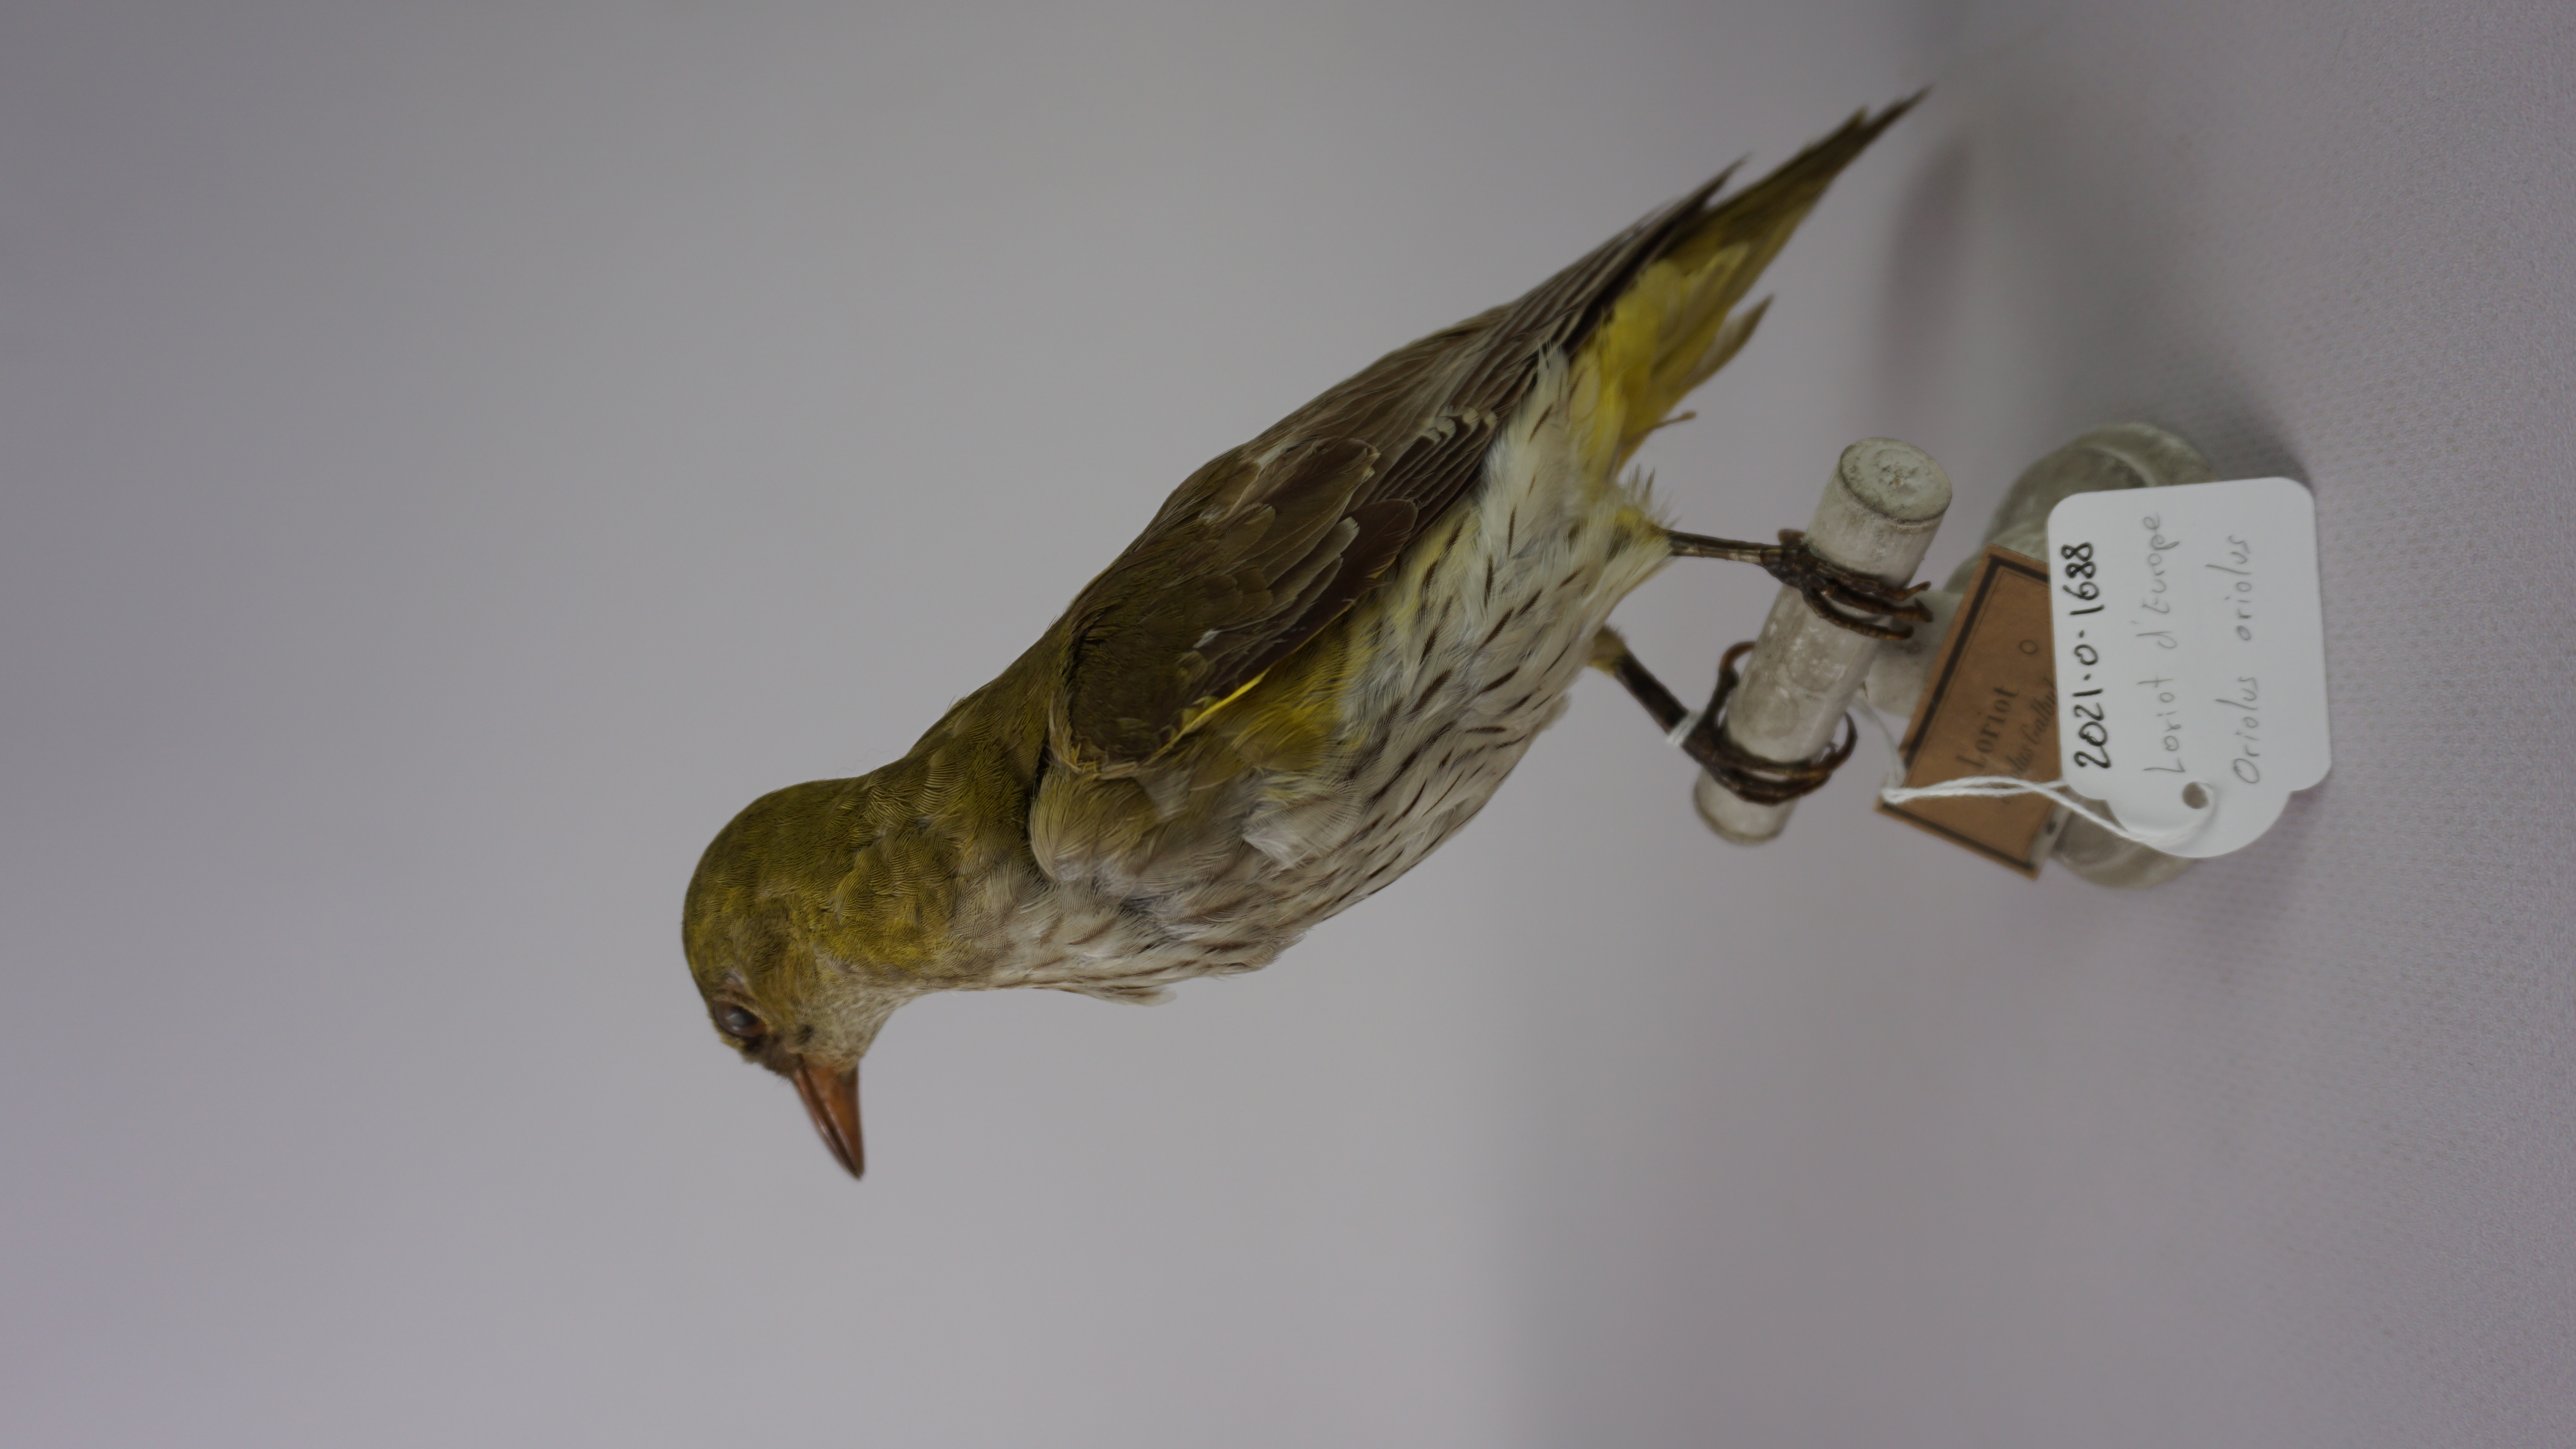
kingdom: Animalia
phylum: Chordata
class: Aves
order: Passeriformes
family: Oriolidae
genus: Oriolus
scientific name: Oriolus oriolus
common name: Eurasian golden oriole
